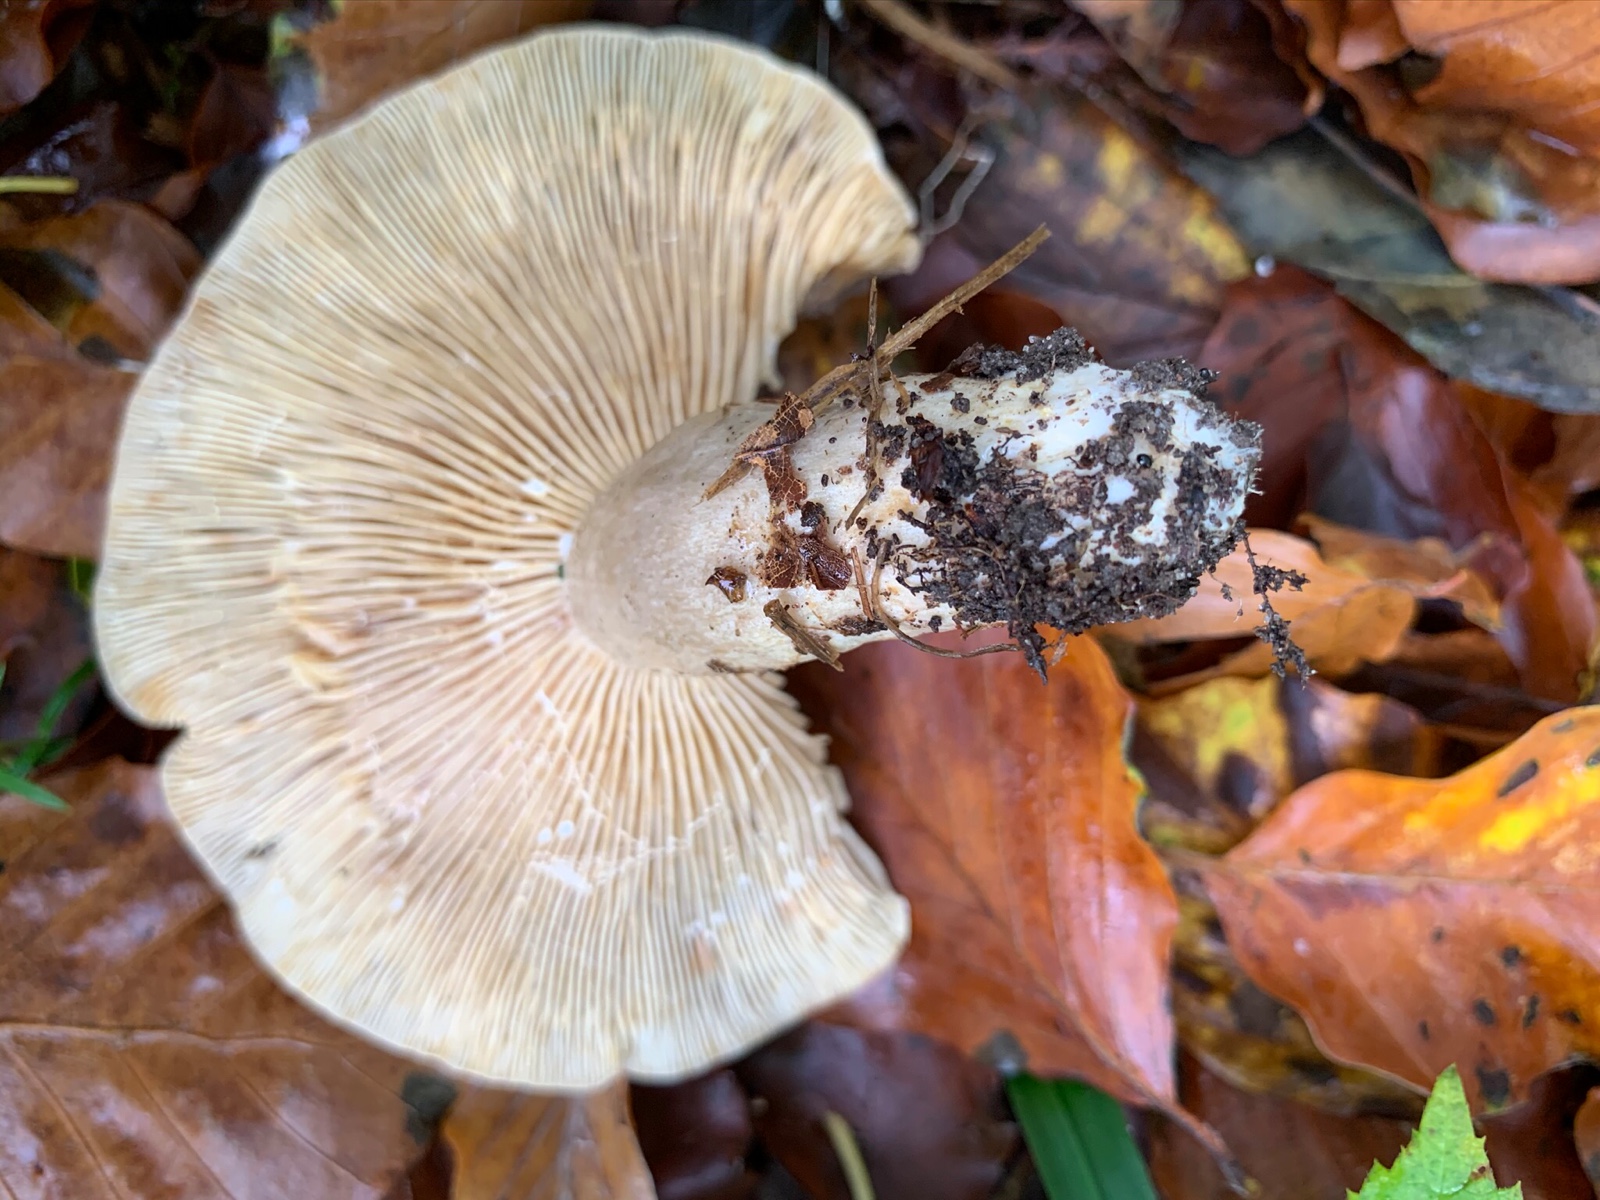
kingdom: Fungi
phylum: Basidiomycota
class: Agaricomycetes
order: Russulales
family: Russulaceae
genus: Lactarius
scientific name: Lactarius fluens
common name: lysrandet mælkehat
